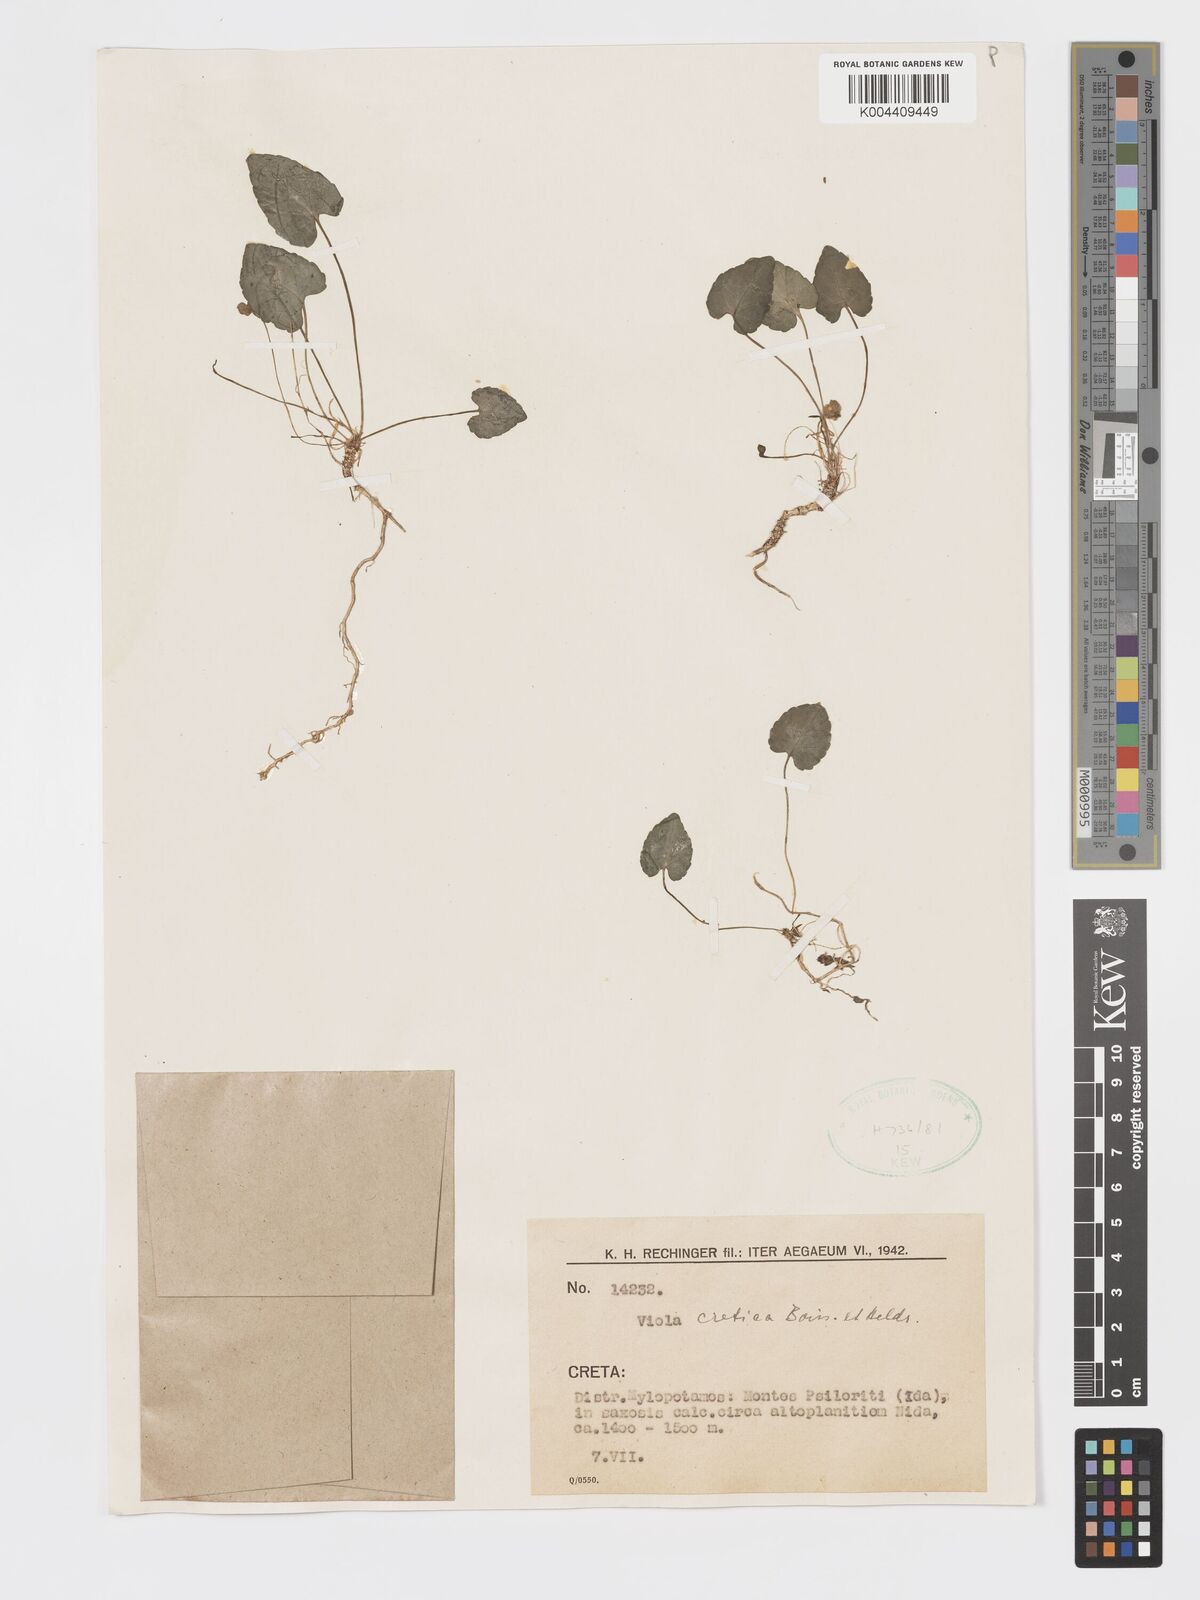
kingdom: Plantae
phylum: Tracheophyta
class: Magnoliopsida
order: Malpighiales
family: Violaceae
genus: Viola
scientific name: Viola alba
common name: White violet
